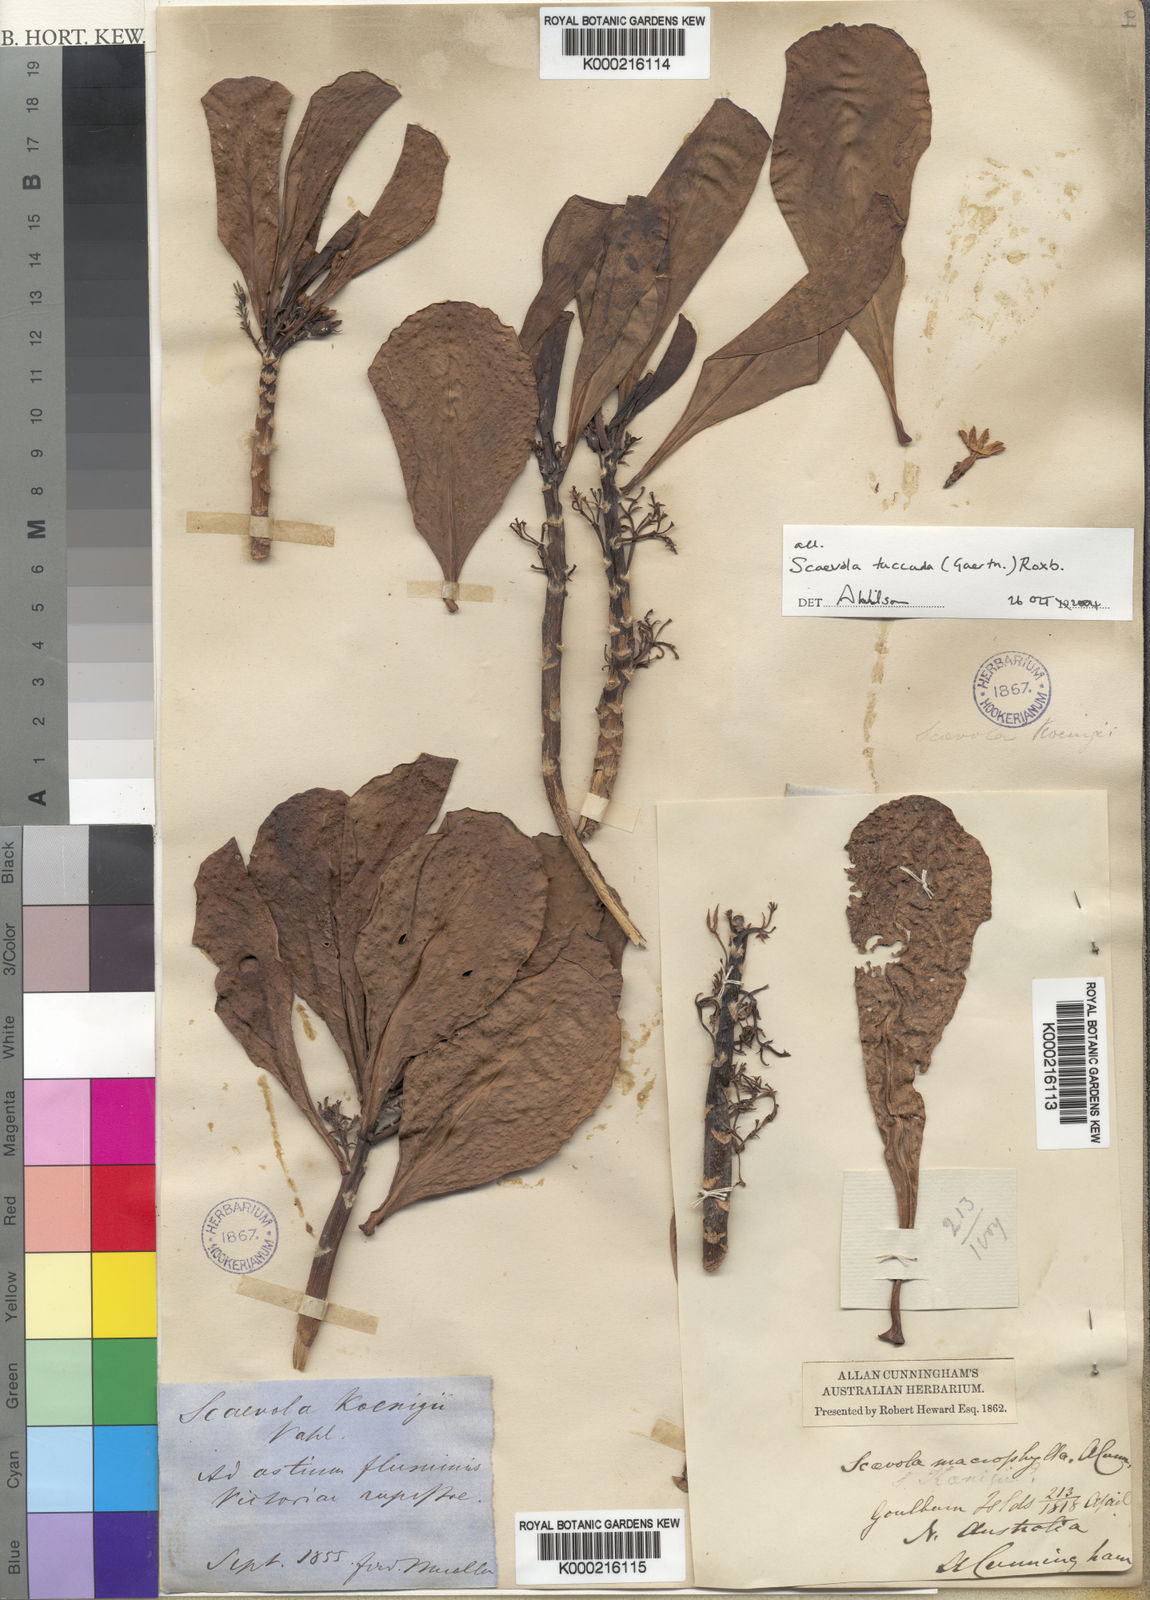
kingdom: Plantae
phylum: Tracheophyta
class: Magnoliopsida
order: Asterales
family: Goodeniaceae
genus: Scaevola
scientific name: Scaevola taccada
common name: Sea lettucetree
